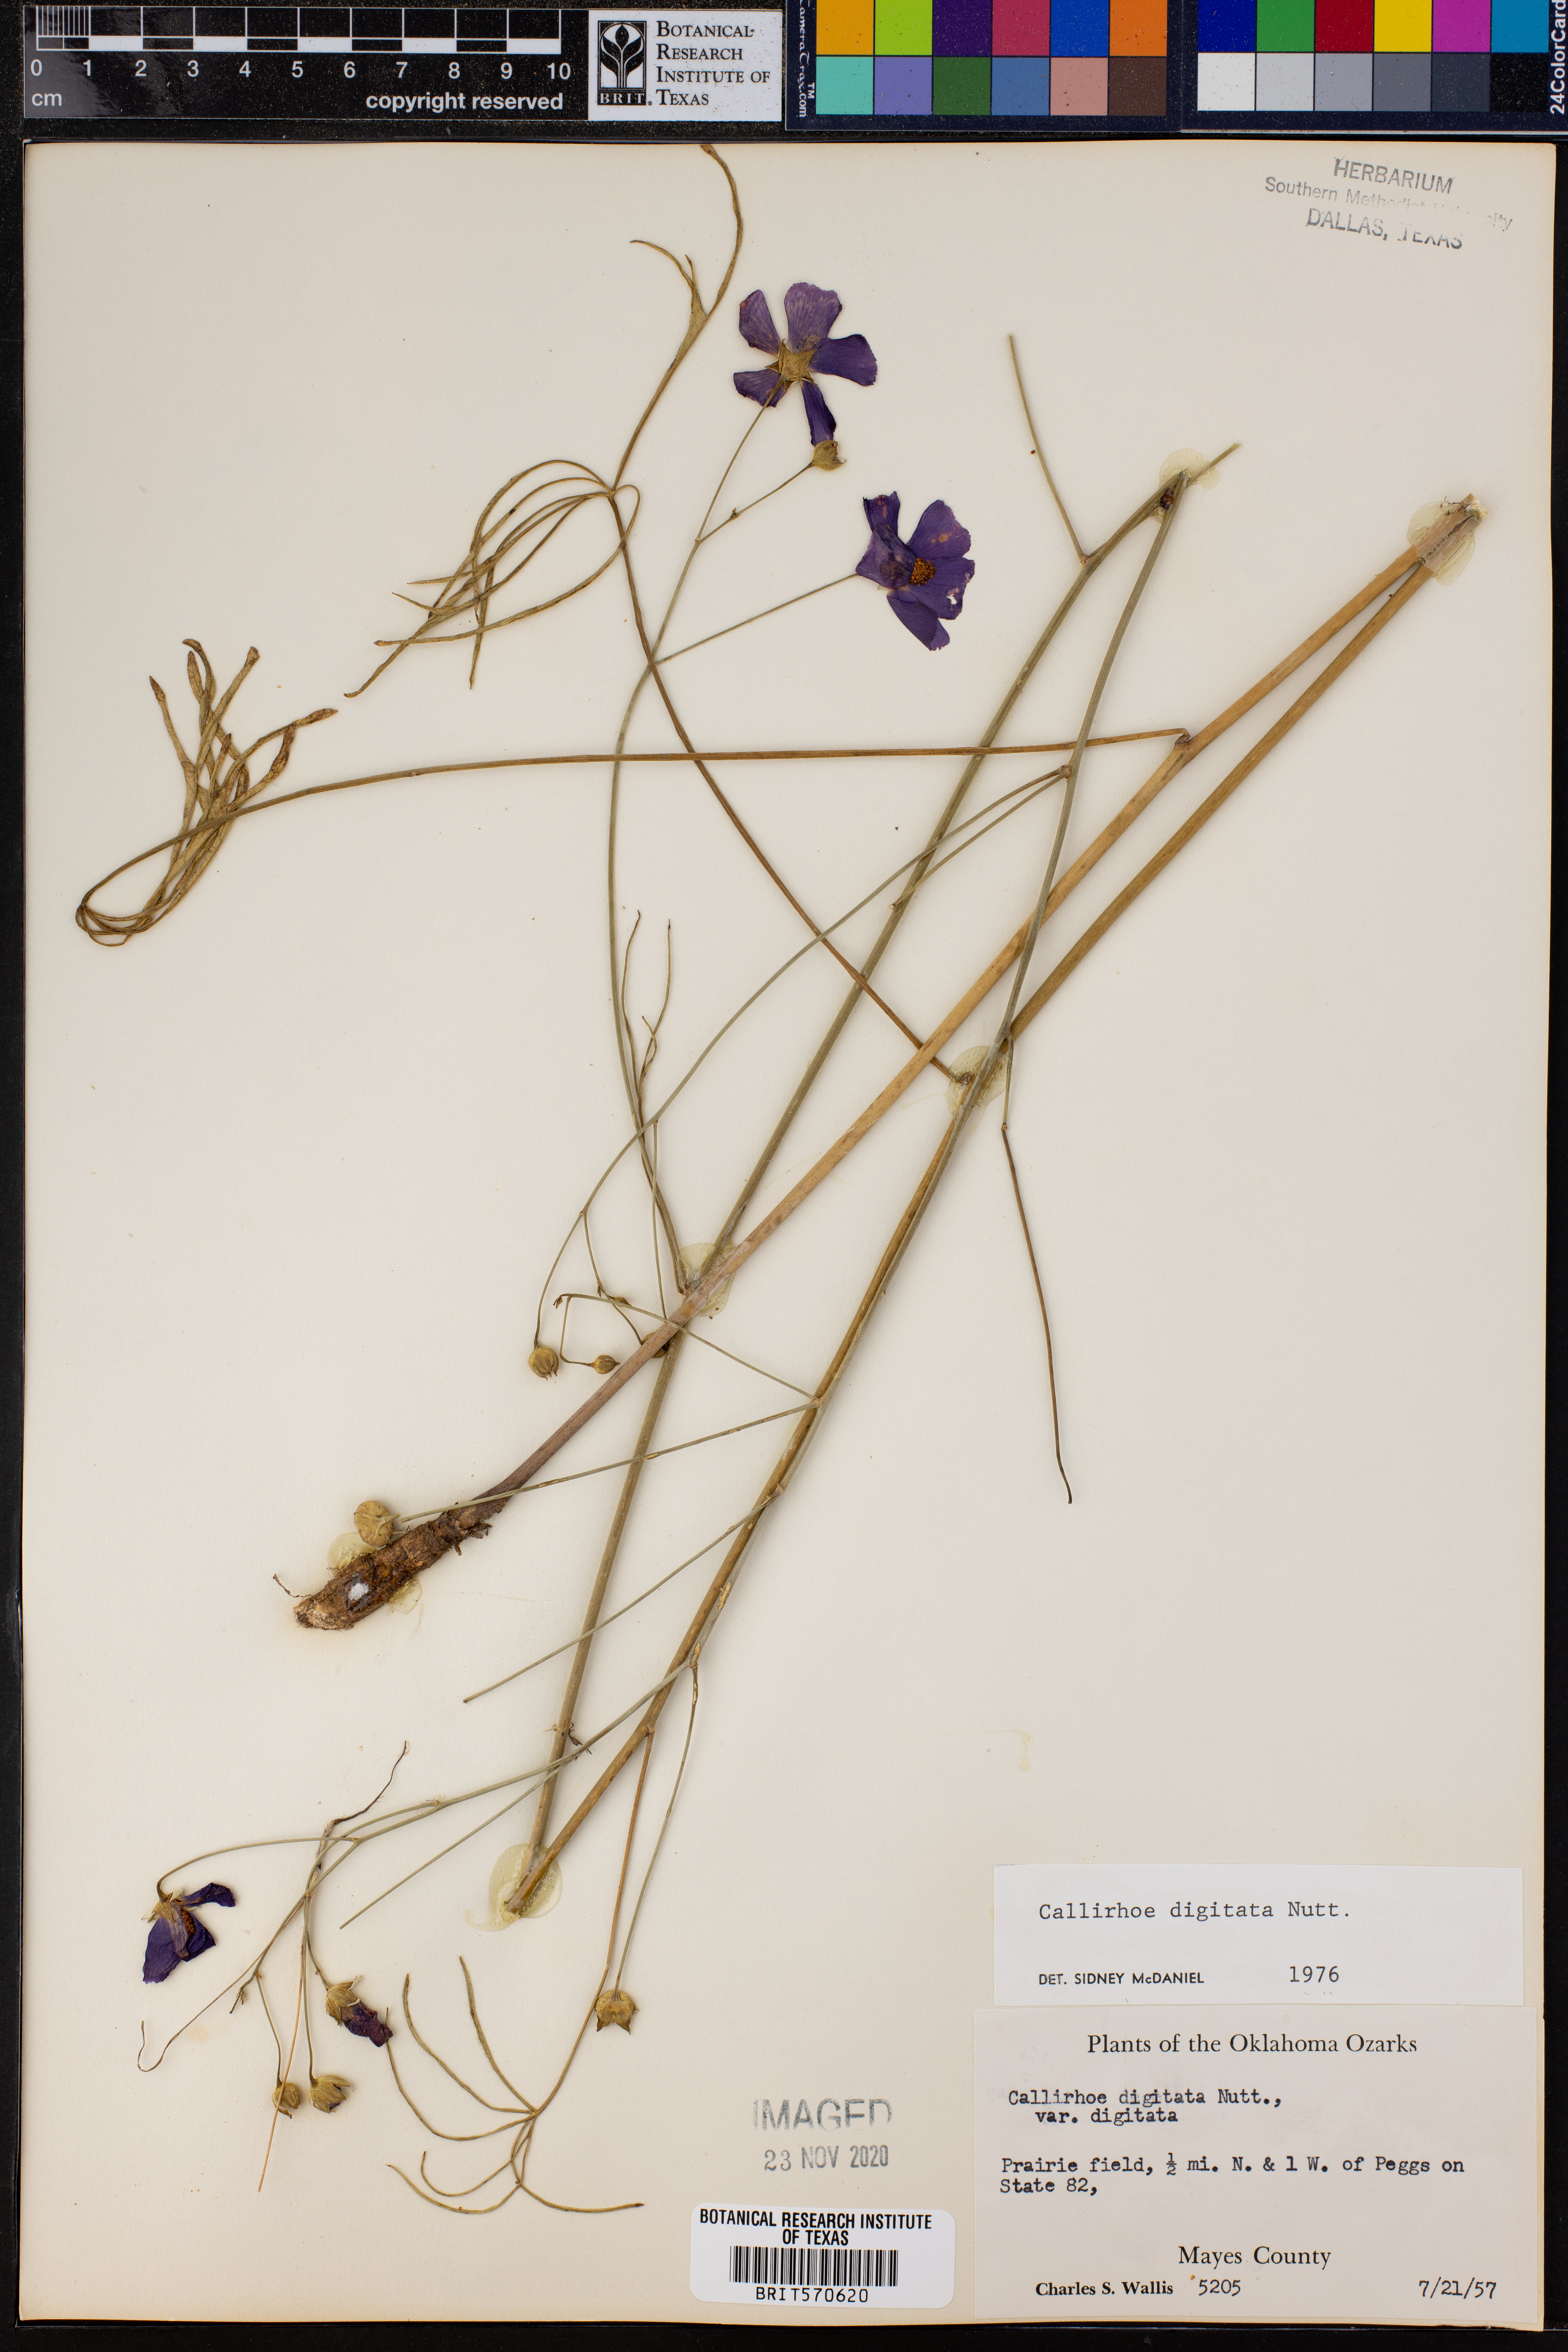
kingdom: Plantae
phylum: Tracheophyta
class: Magnoliopsida
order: Malvales
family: Malvaceae
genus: Callirhoe
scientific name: Callirhoe digitata
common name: Finger poppy-mallow
